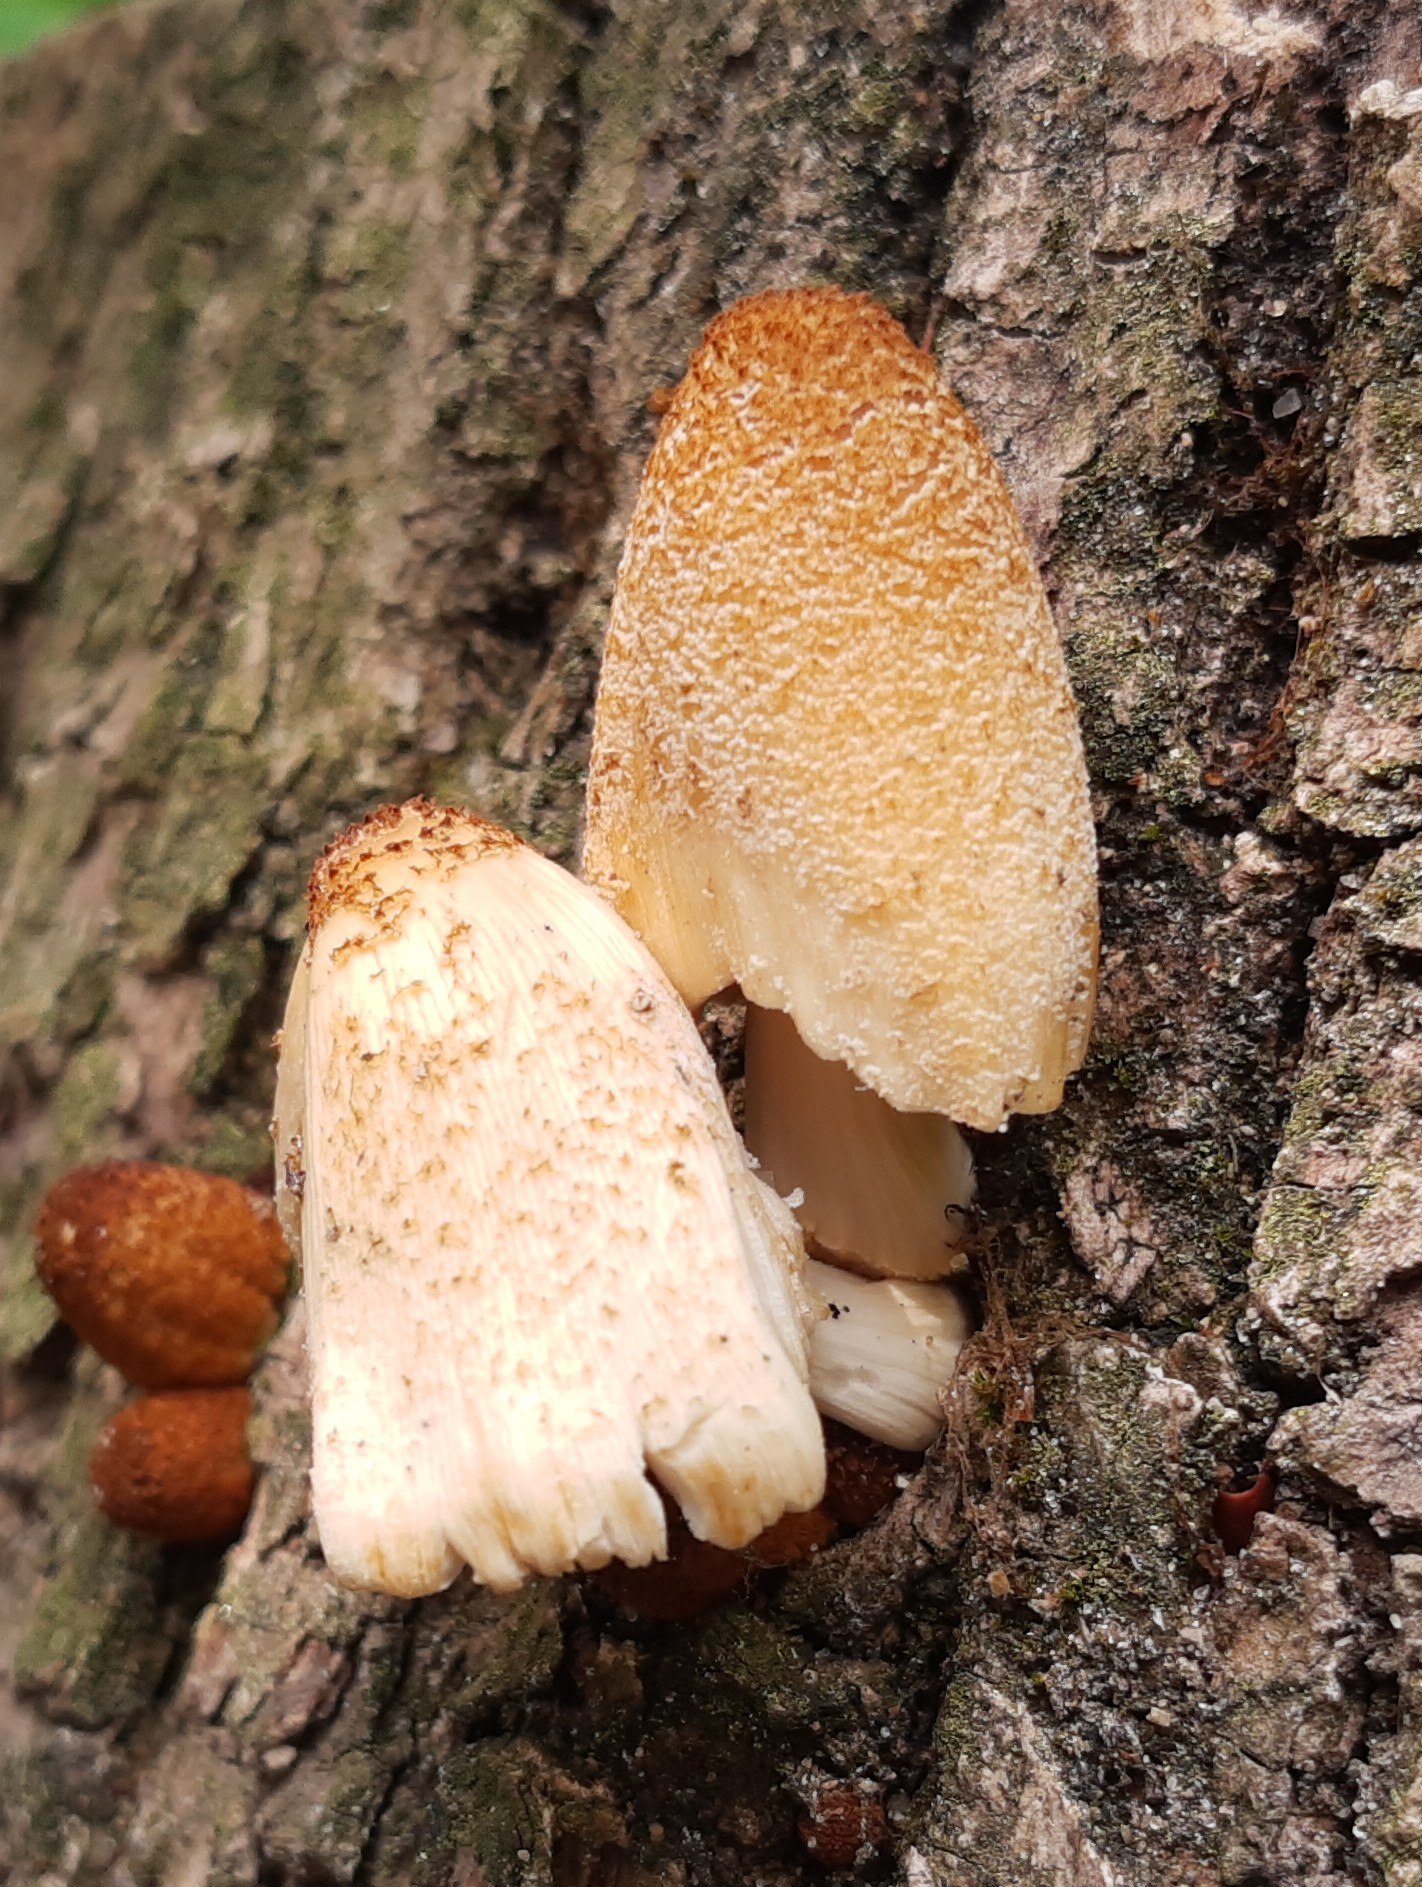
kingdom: Fungi
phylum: Basidiomycota
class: Agaricomycetes
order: Agaricales
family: Psathyrellaceae
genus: Coprinellus
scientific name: Coprinellus
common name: blækhat
